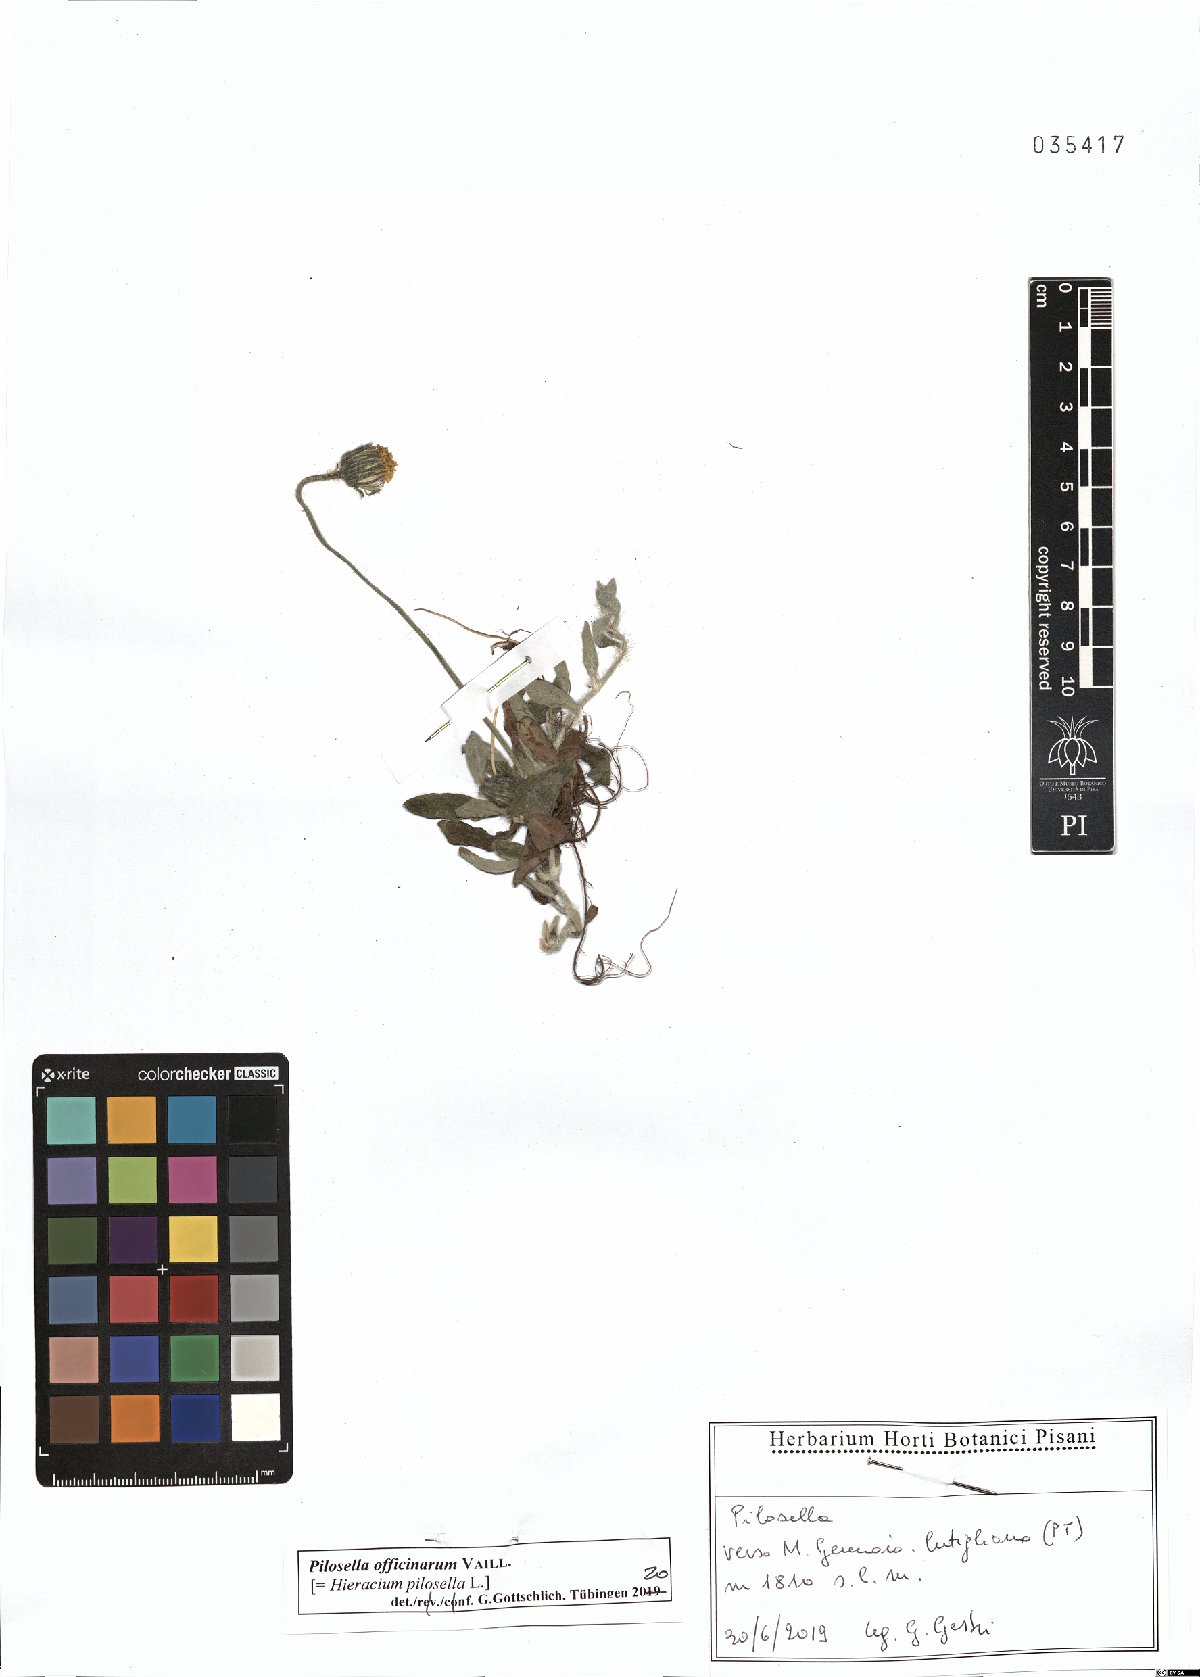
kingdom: Plantae
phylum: Tracheophyta
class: Magnoliopsida
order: Asterales
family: Asteraceae
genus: Pilosella
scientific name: Pilosella officinarum
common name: Mouse-ear hawkweed
